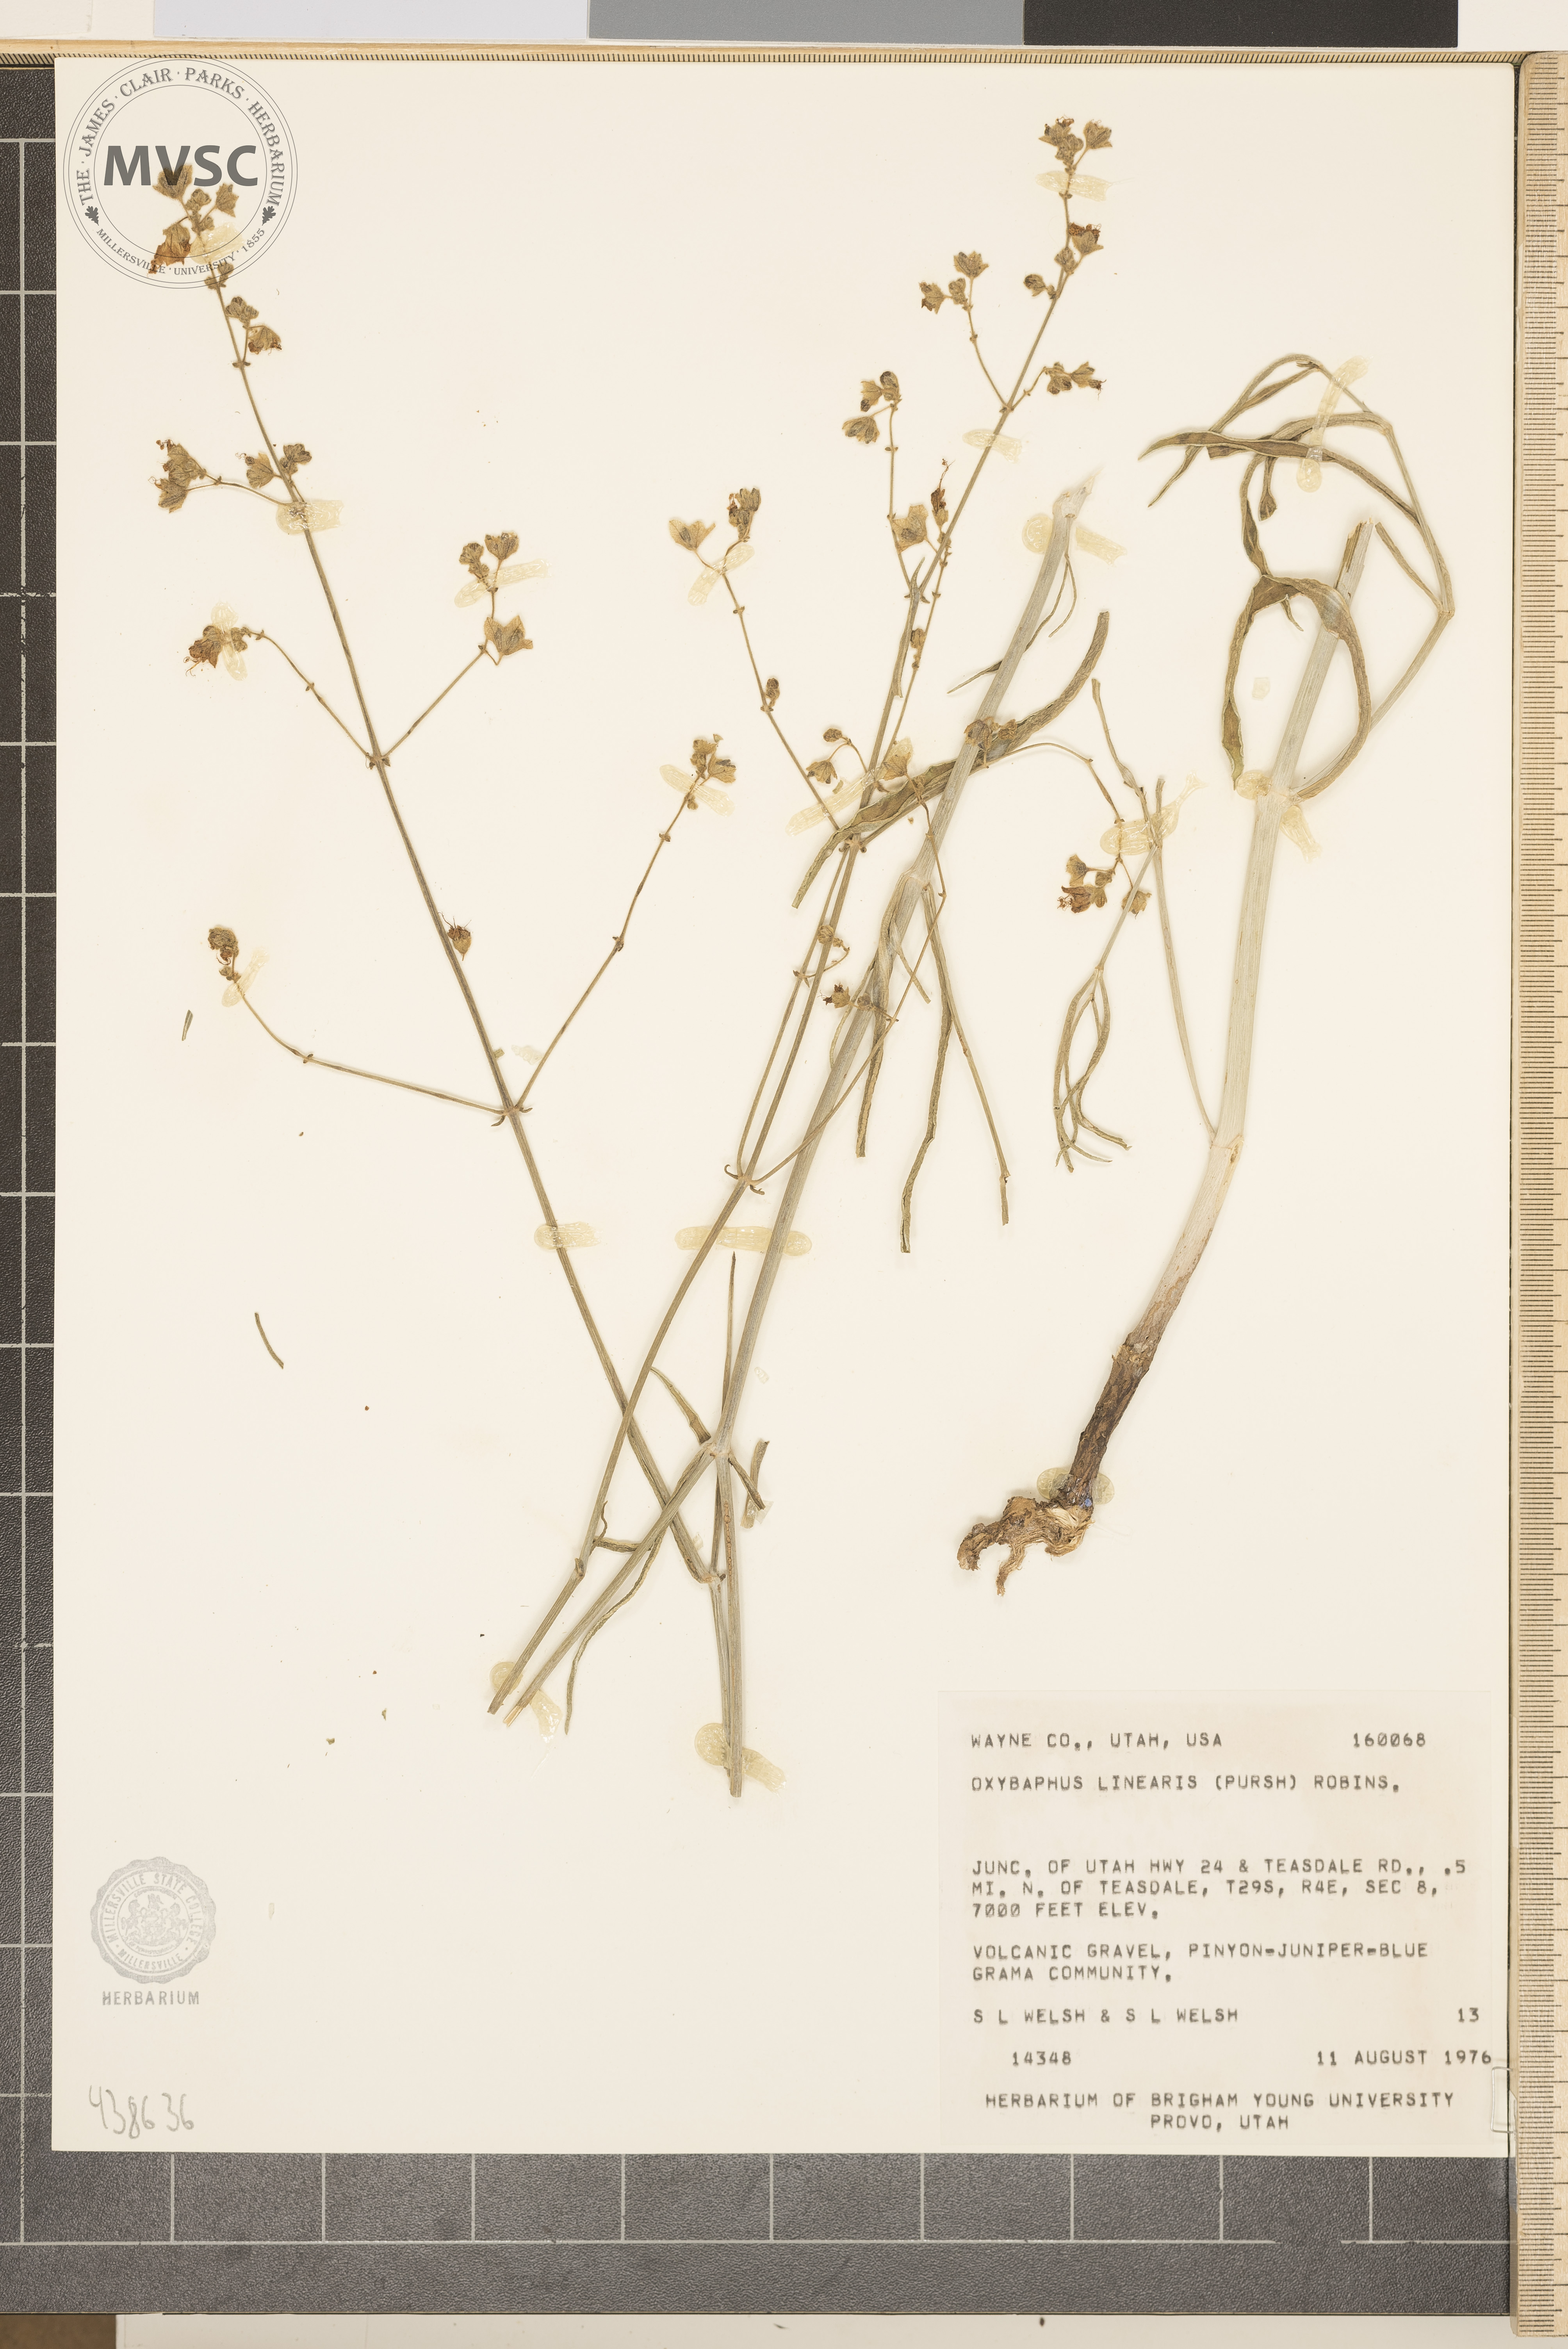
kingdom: Plantae
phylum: Tracheophyta
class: Magnoliopsida
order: Caryophyllales
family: Nyctaginaceae
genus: Mirabilis
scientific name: Mirabilis linearis
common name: Linear-leaved four-o'clock
